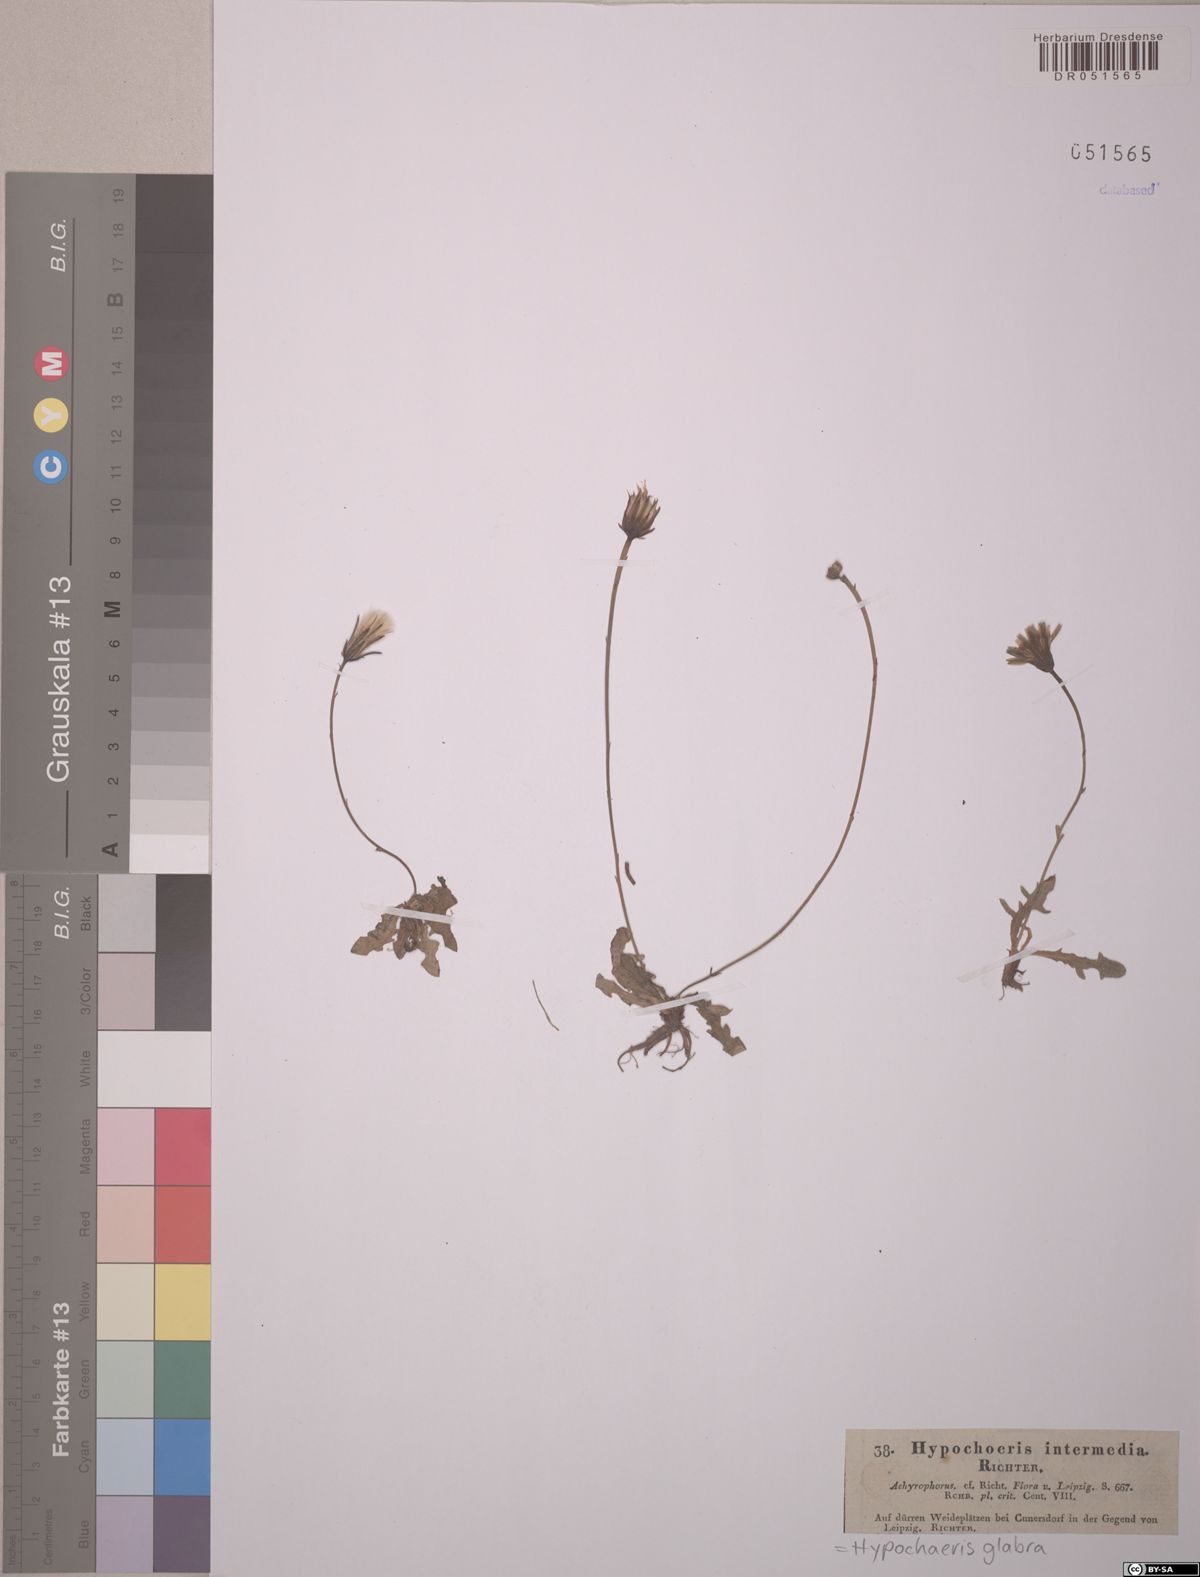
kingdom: Plantae
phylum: Tracheophyta
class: Magnoliopsida
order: Asterales
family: Asteraceae
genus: Hypochaeris
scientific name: Hypochaeris glabra
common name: Smooth catsear
